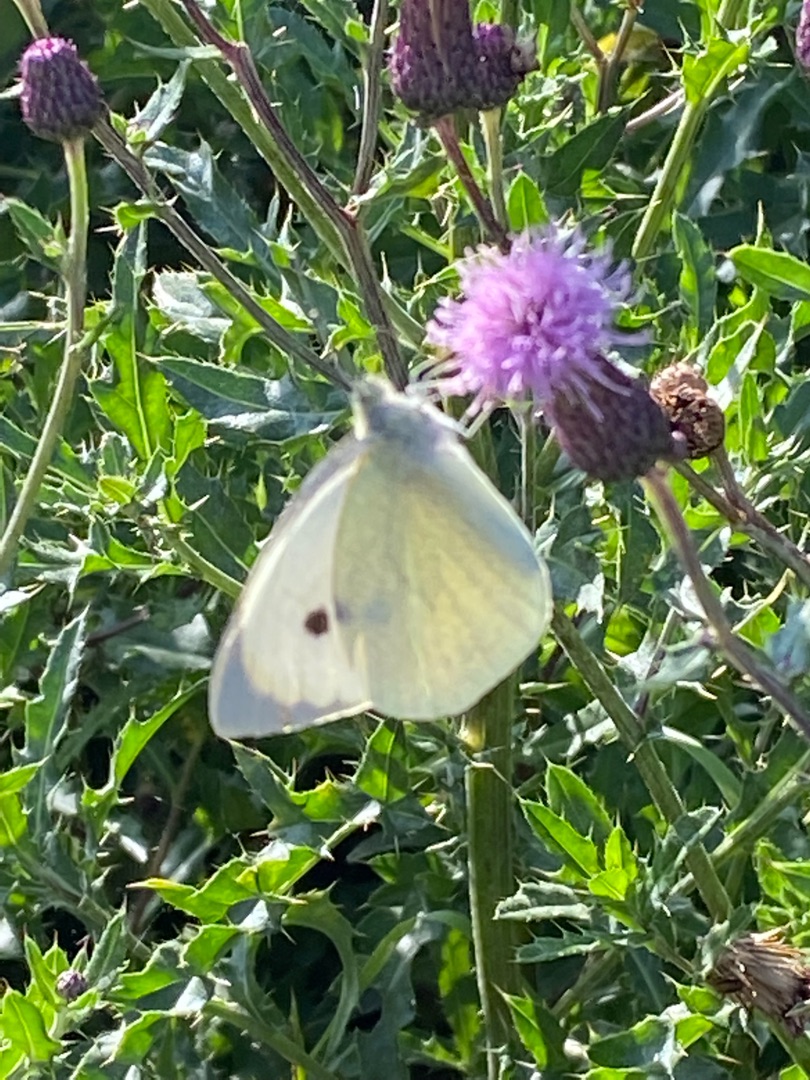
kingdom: Animalia
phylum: Arthropoda
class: Insecta
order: Lepidoptera
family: Pieridae
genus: Pieris
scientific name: Pieris brassicae
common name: Stor kålsommerfugl
